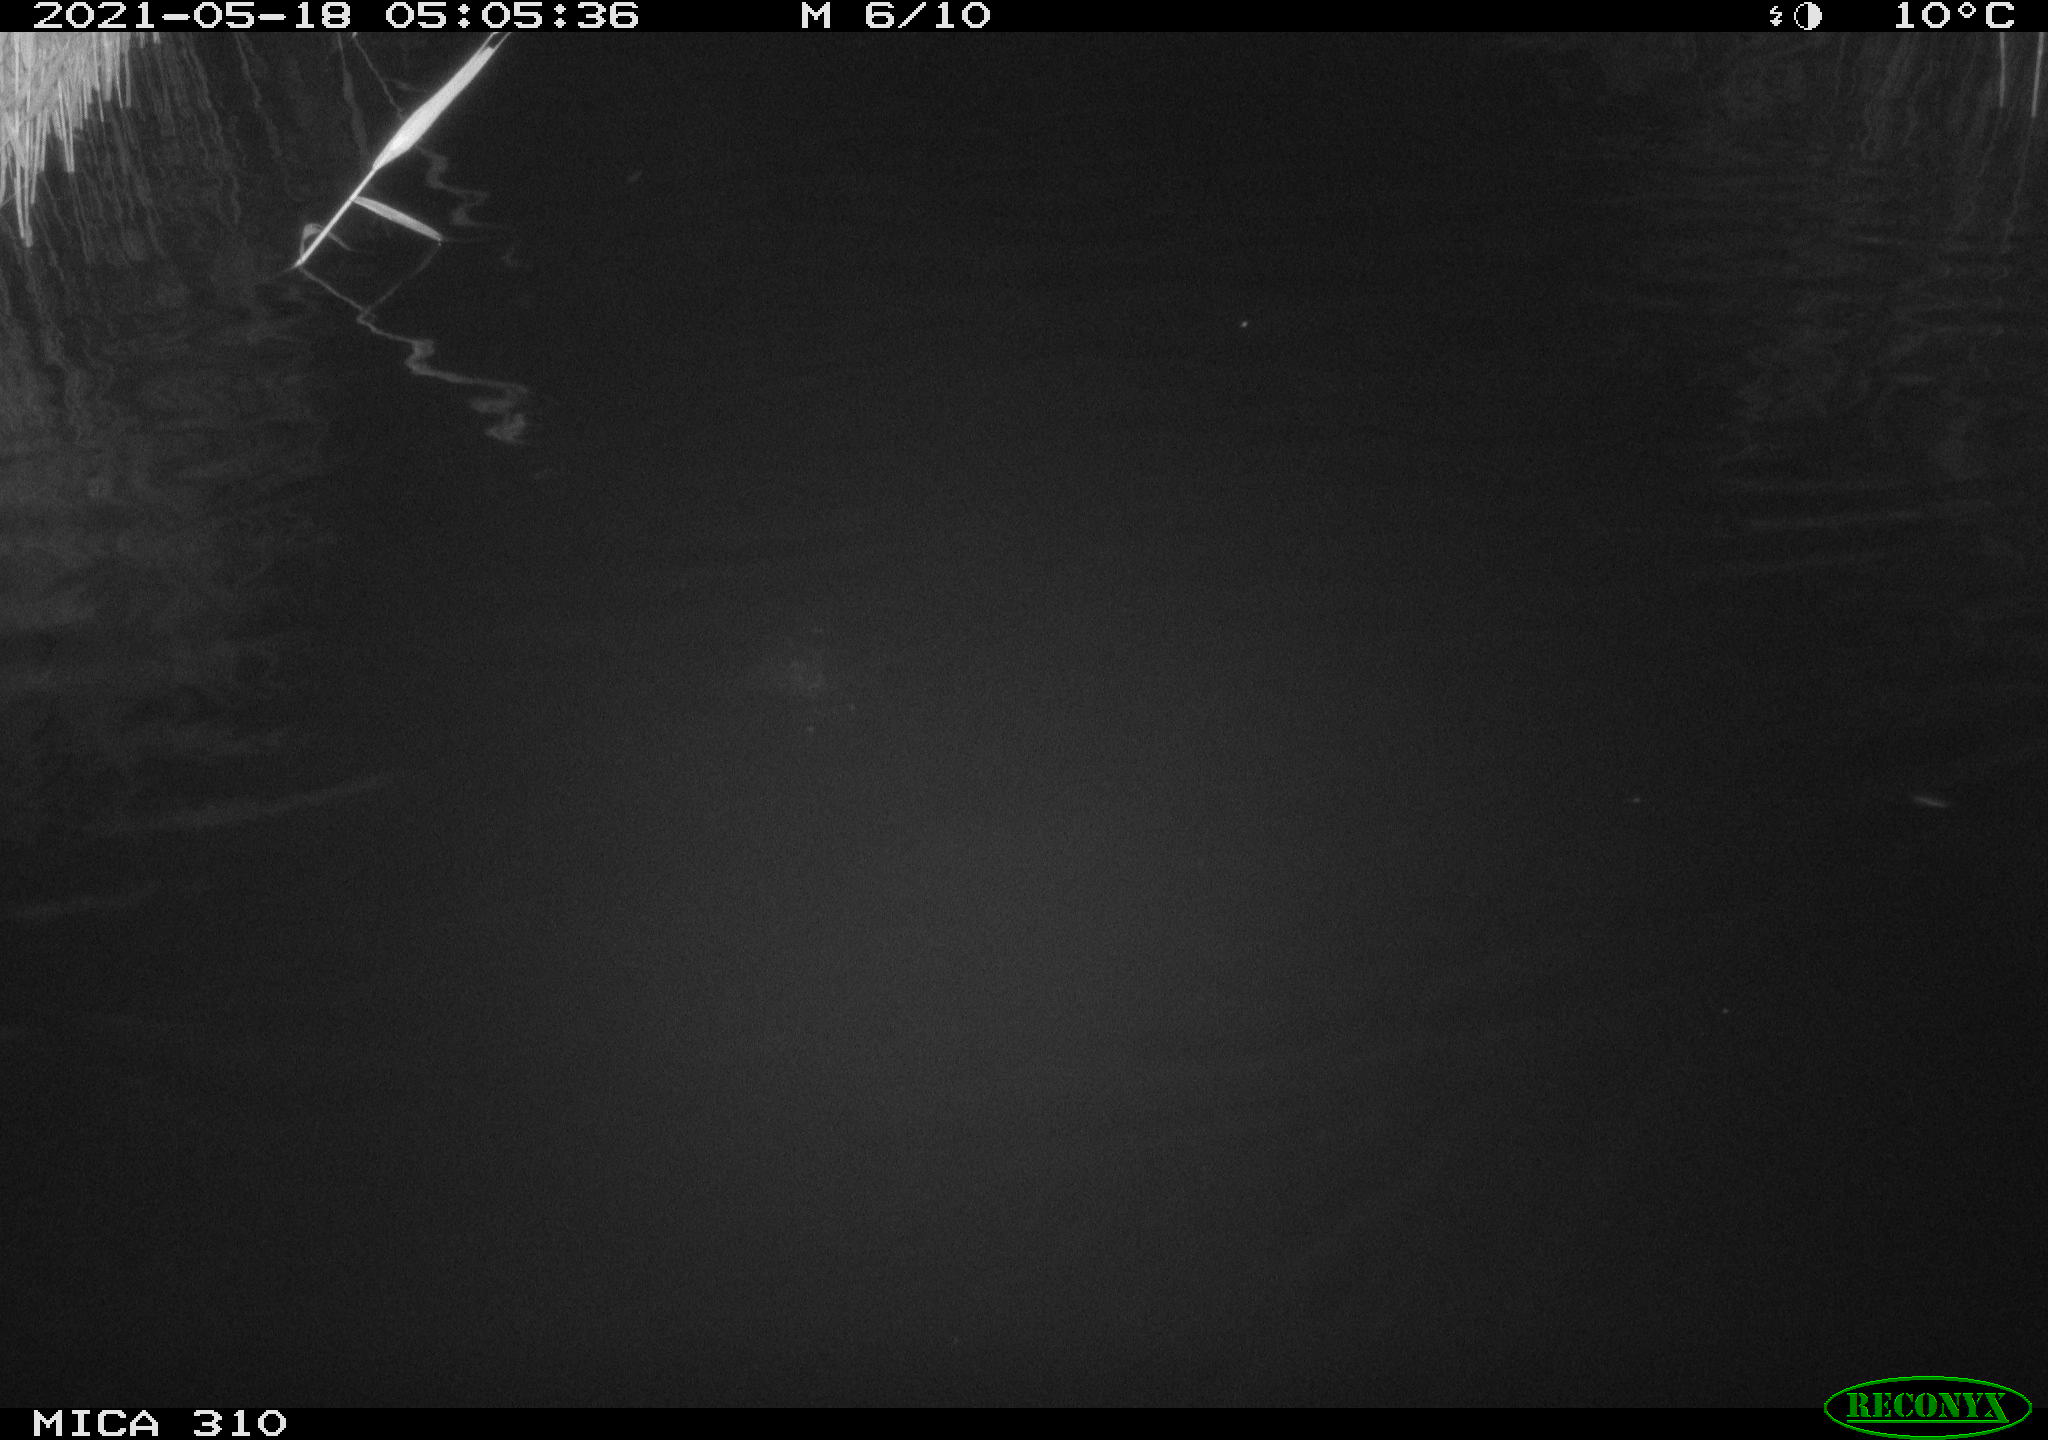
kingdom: Animalia
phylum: Chordata
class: Aves
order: Anseriformes
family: Anatidae
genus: Anas
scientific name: Anas platyrhynchos
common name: Mallard
